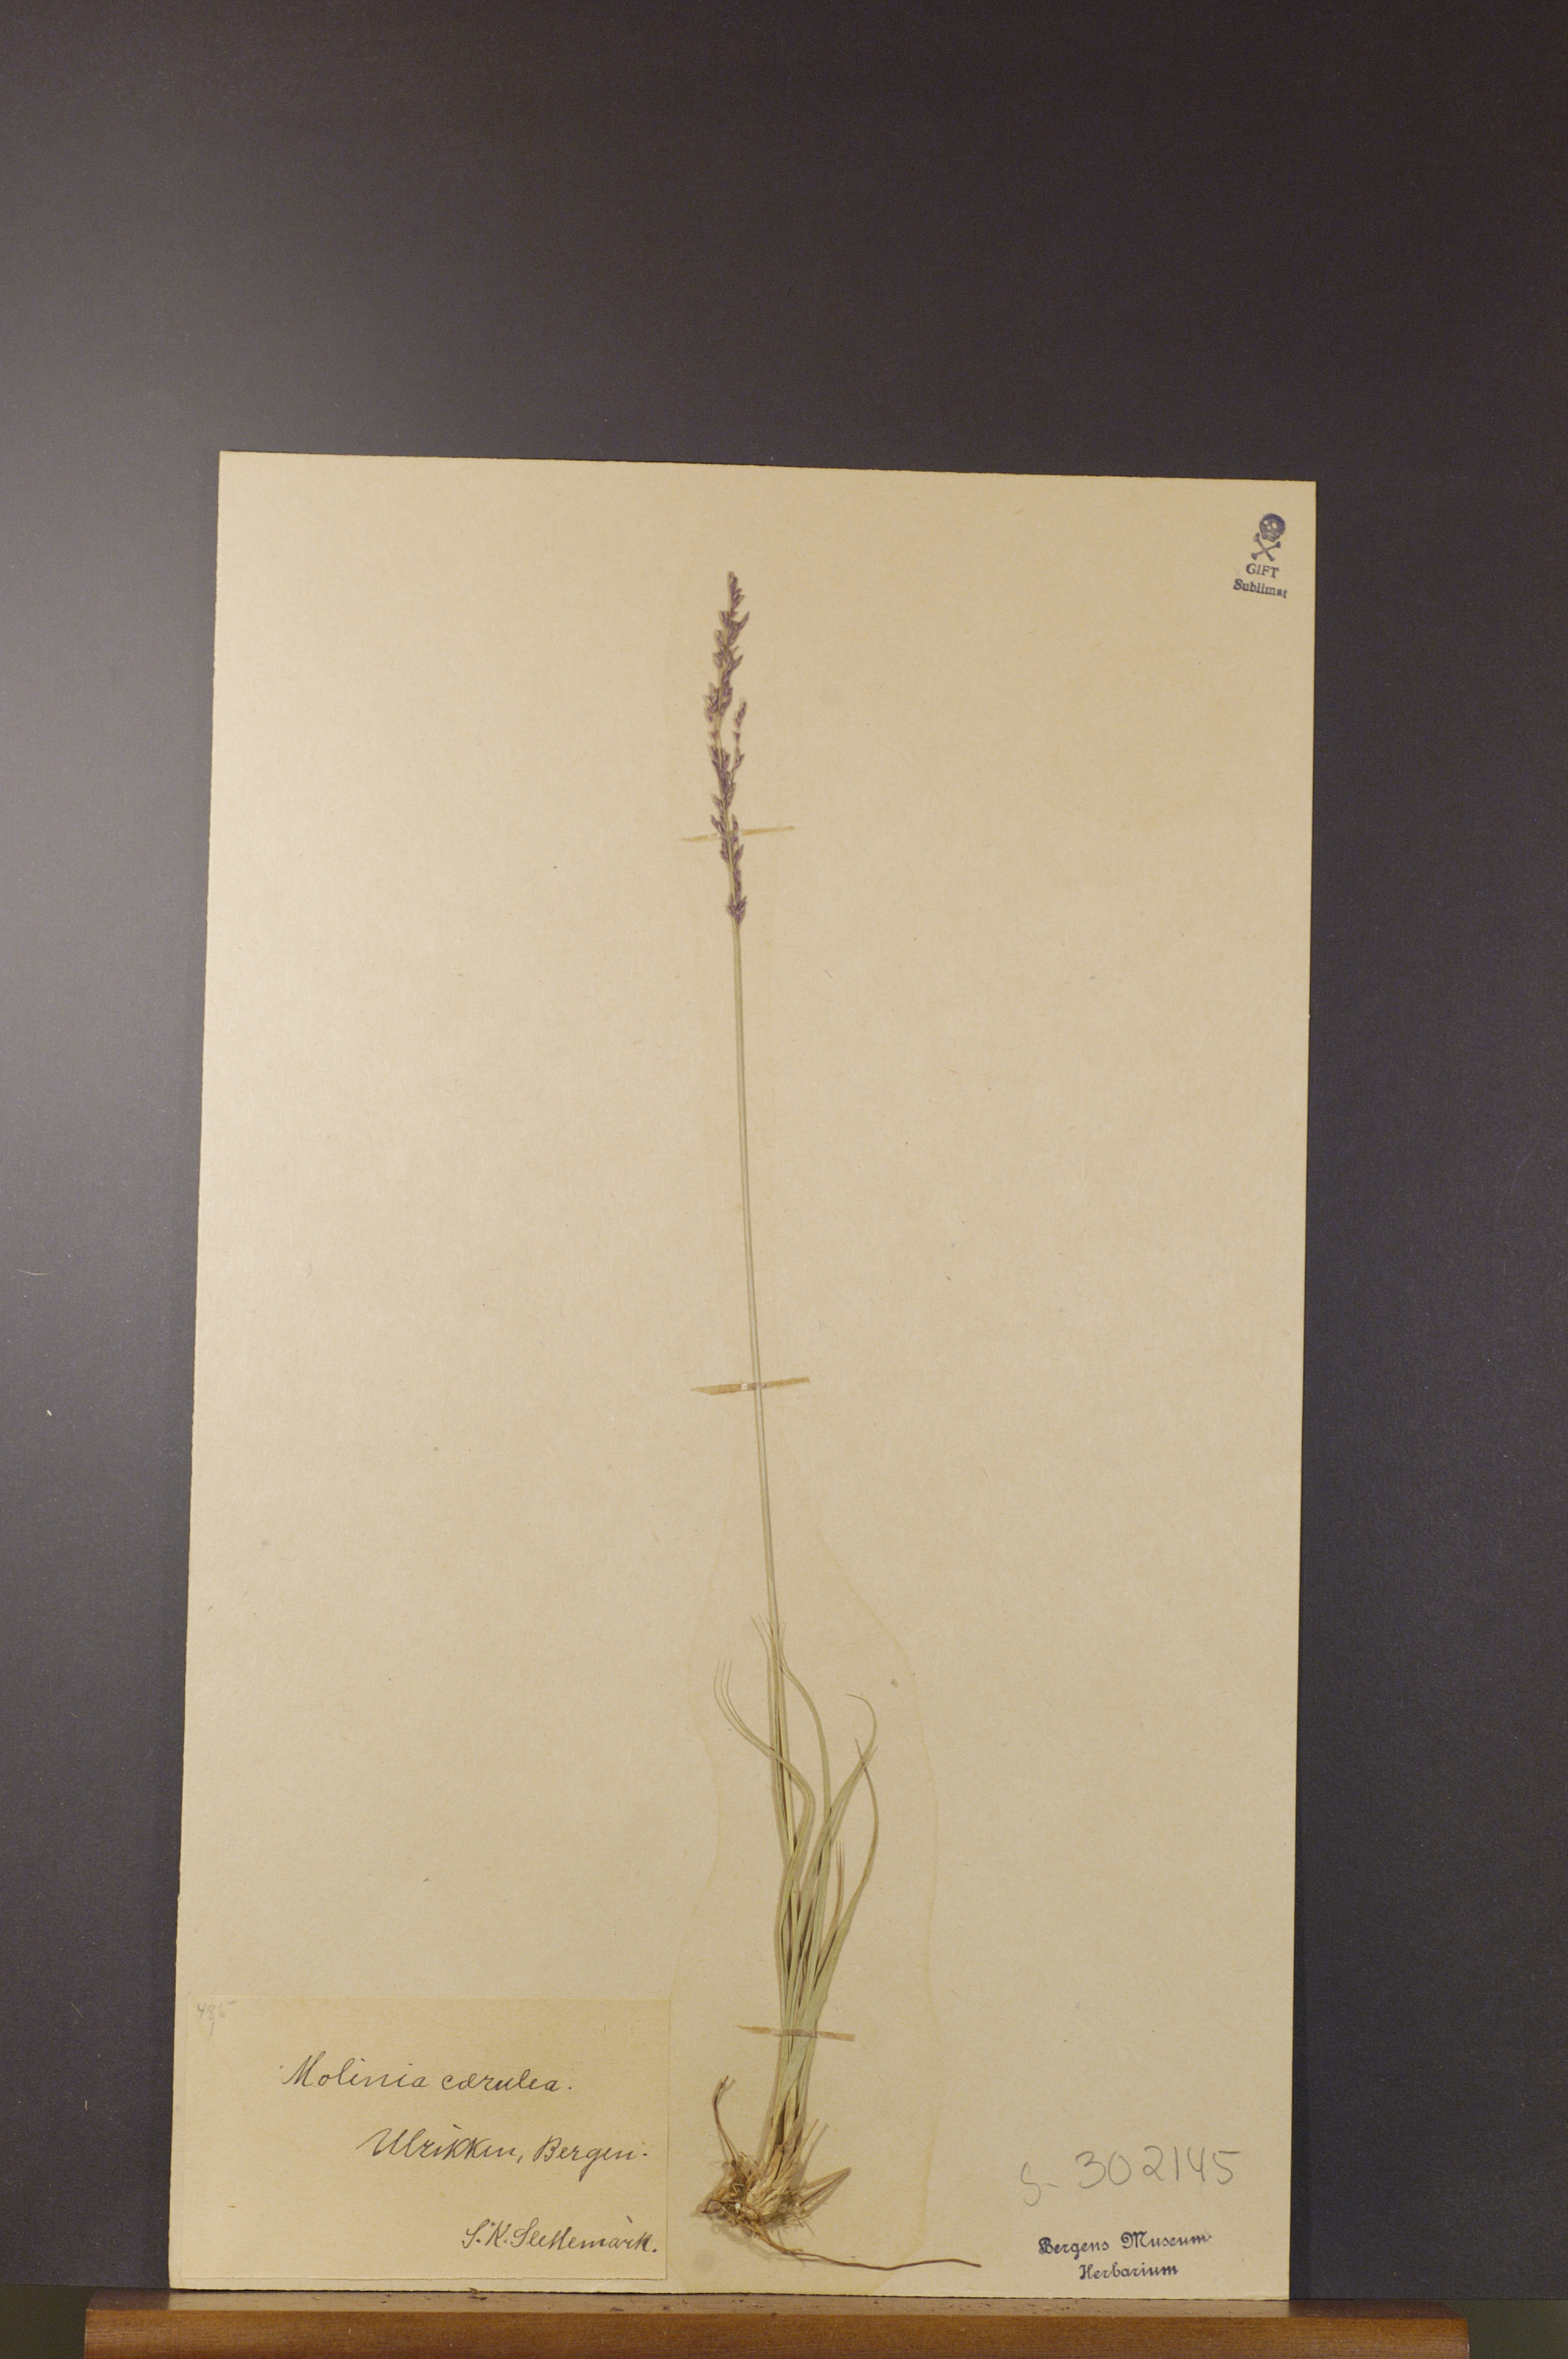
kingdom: Plantae
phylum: Tracheophyta
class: Liliopsida
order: Poales
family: Poaceae
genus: Molinia
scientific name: Molinia caerulea
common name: Purple moor-grass
